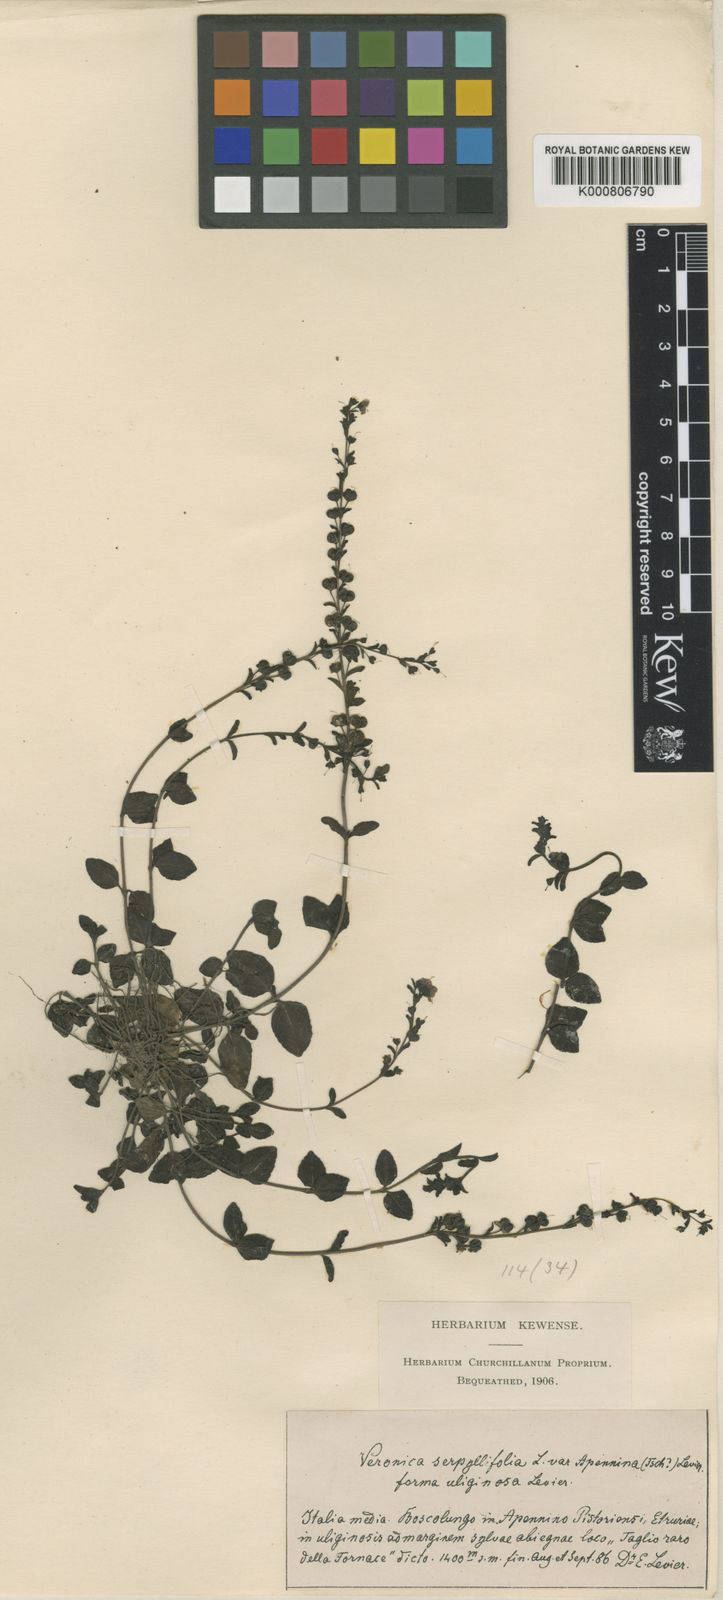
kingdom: Plantae
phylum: Tracheophyta
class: Magnoliopsida
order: Lamiales
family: Plantaginaceae
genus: Veronica
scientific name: Veronica serpyllifolia
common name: Thyme-leaved speedwell
